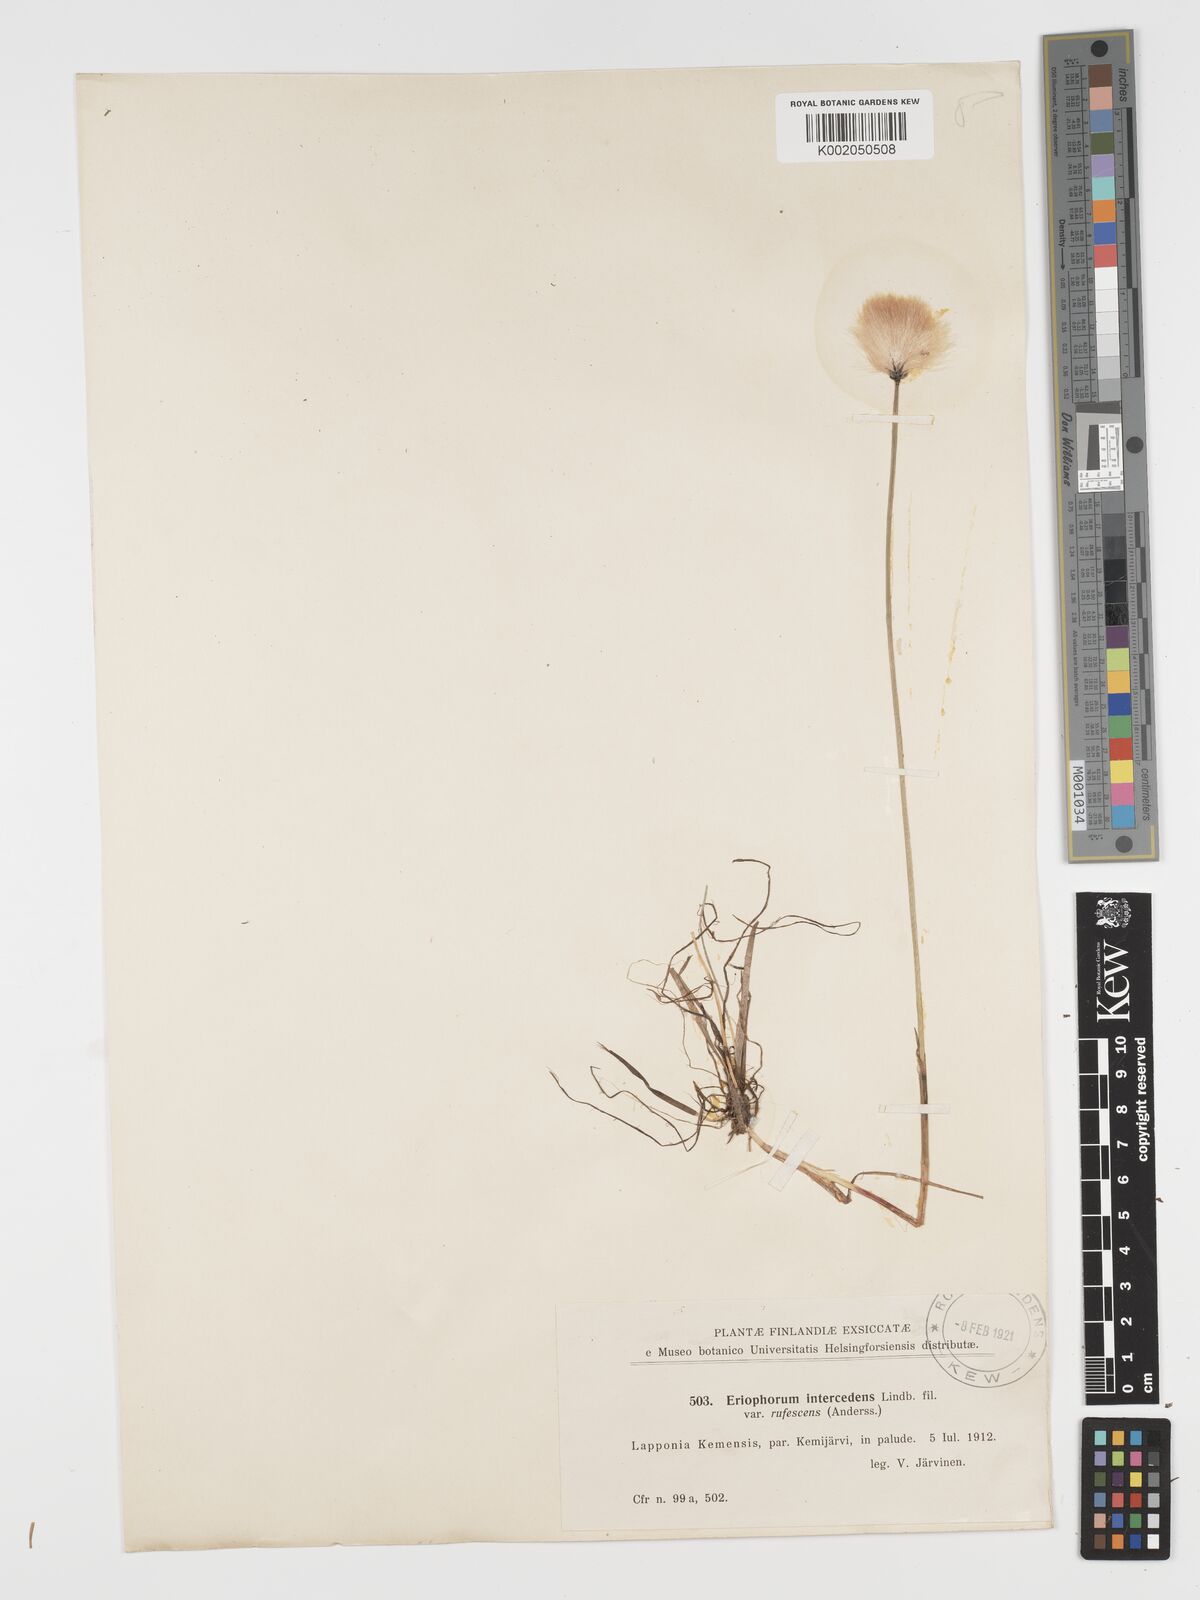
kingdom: Plantae
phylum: Tracheophyta
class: Liliopsida
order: Poales
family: Cyperaceae
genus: Eriophorum
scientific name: Eriophorum medium
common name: Intermediate cottongrass
